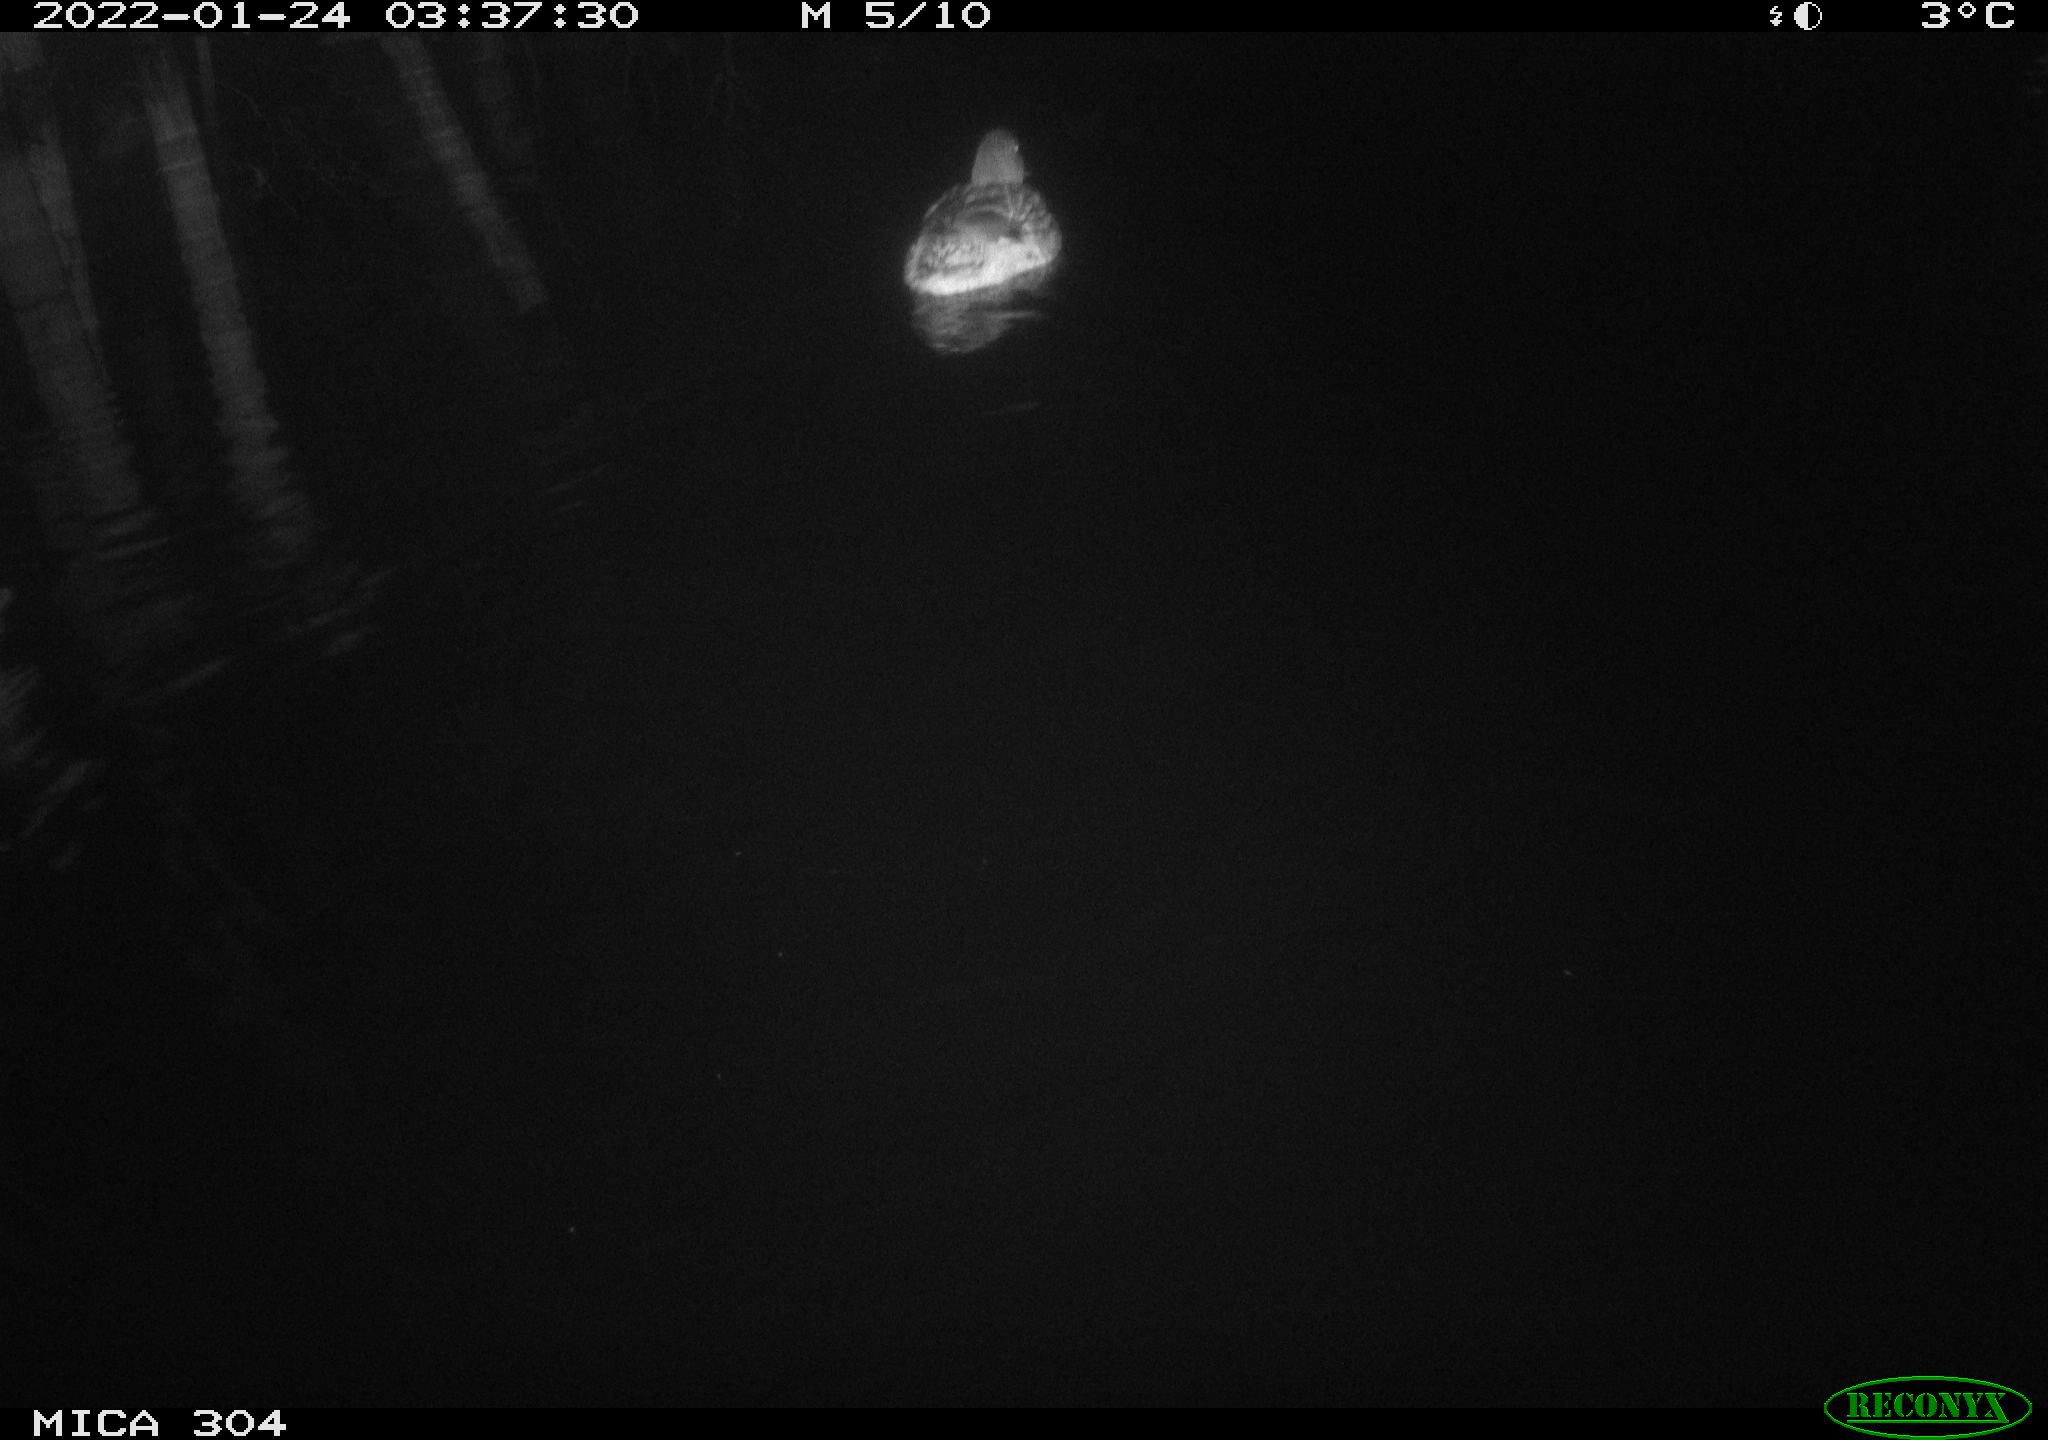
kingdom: Animalia
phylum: Chordata
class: Aves
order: Anseriformes
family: Anatidae
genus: Anas
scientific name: Anas
